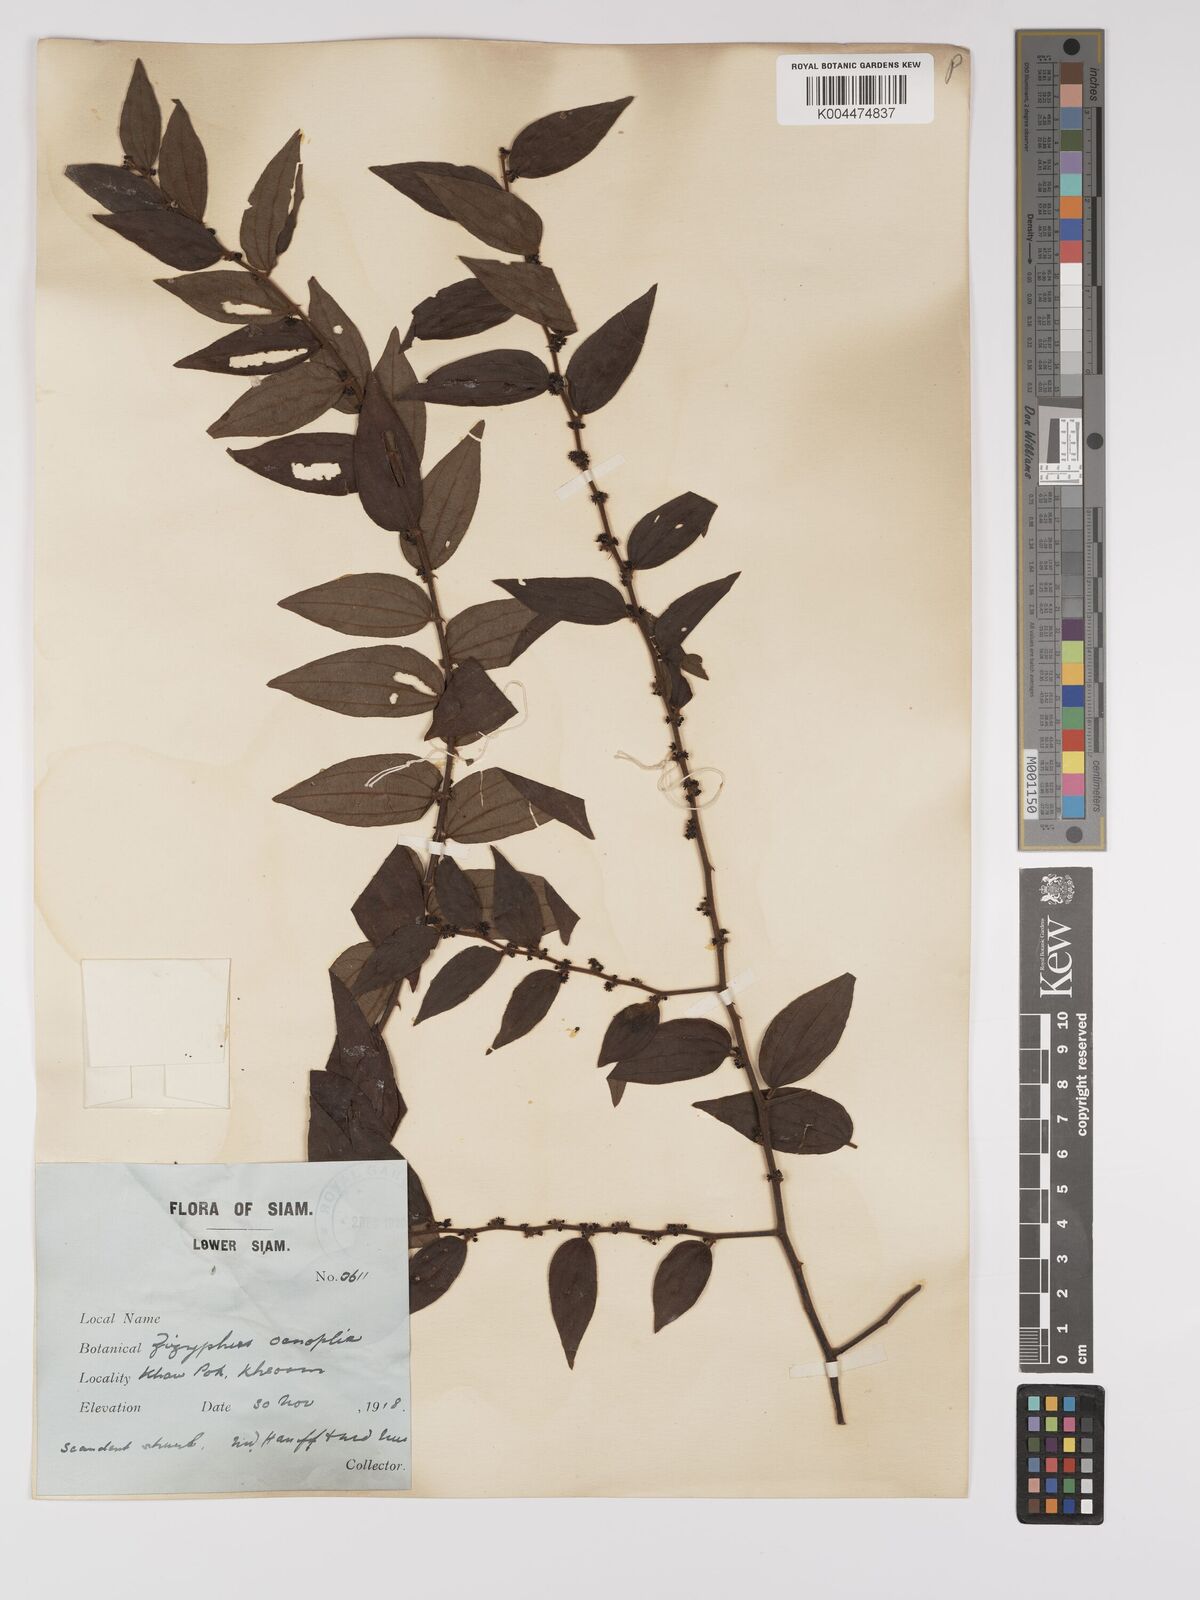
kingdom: Plantae
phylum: Tracheophyta
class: Magnoliopsida
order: Rosales
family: Rhamnaceae
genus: Ziziphus
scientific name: Ziziphus oenopolia
